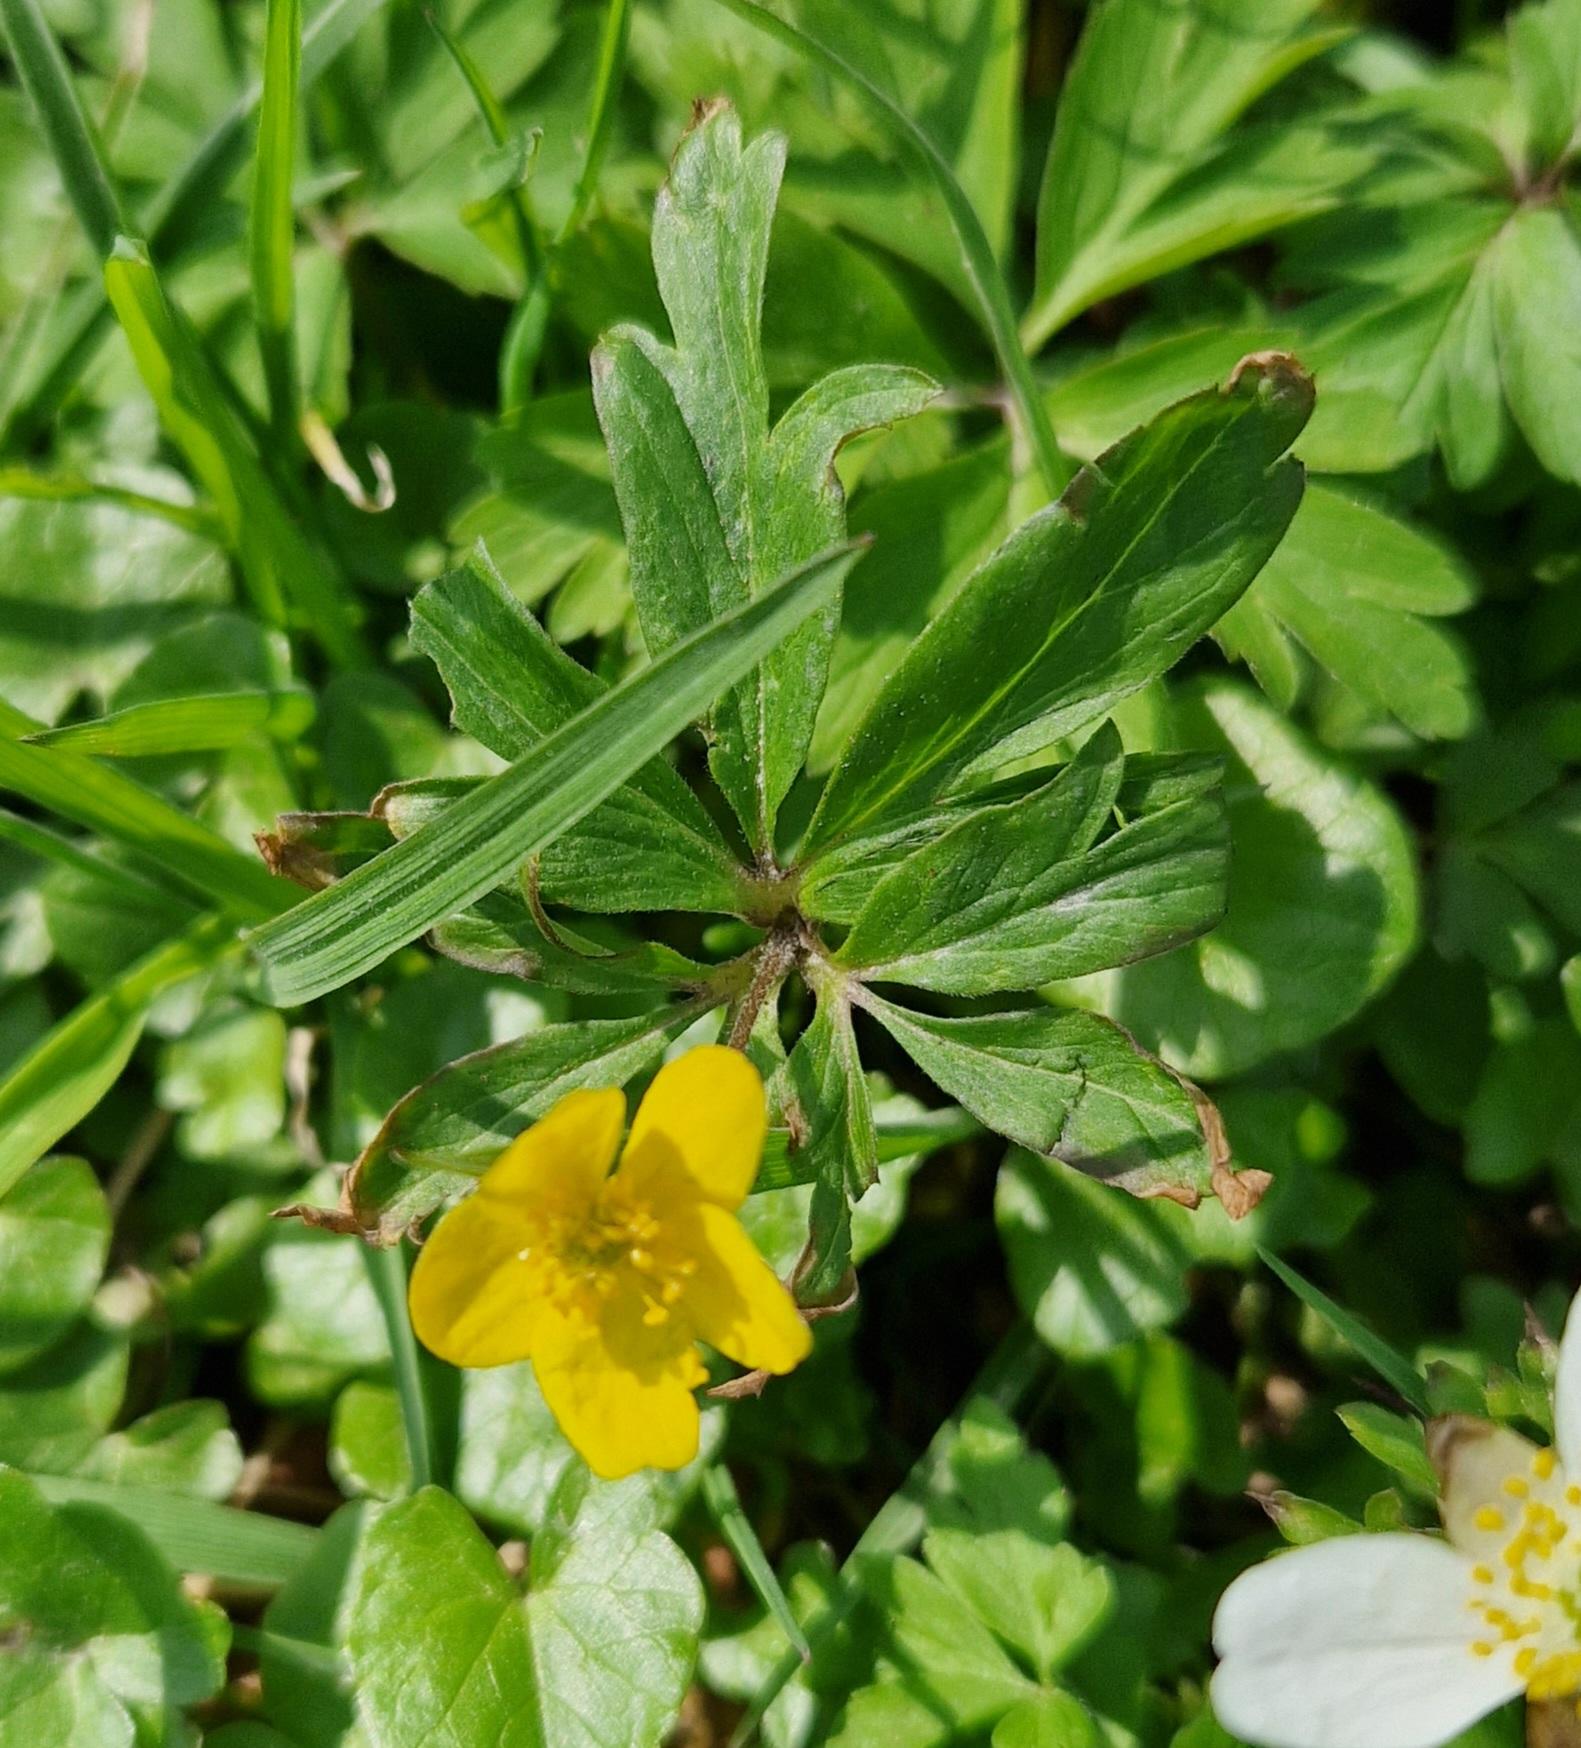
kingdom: Plantae
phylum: Tracheophyta
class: Magnoliopsida
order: Ranunculales
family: Ranunculaceae
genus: Anemone
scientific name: Anemone ranunculoides
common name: Gul anemone
